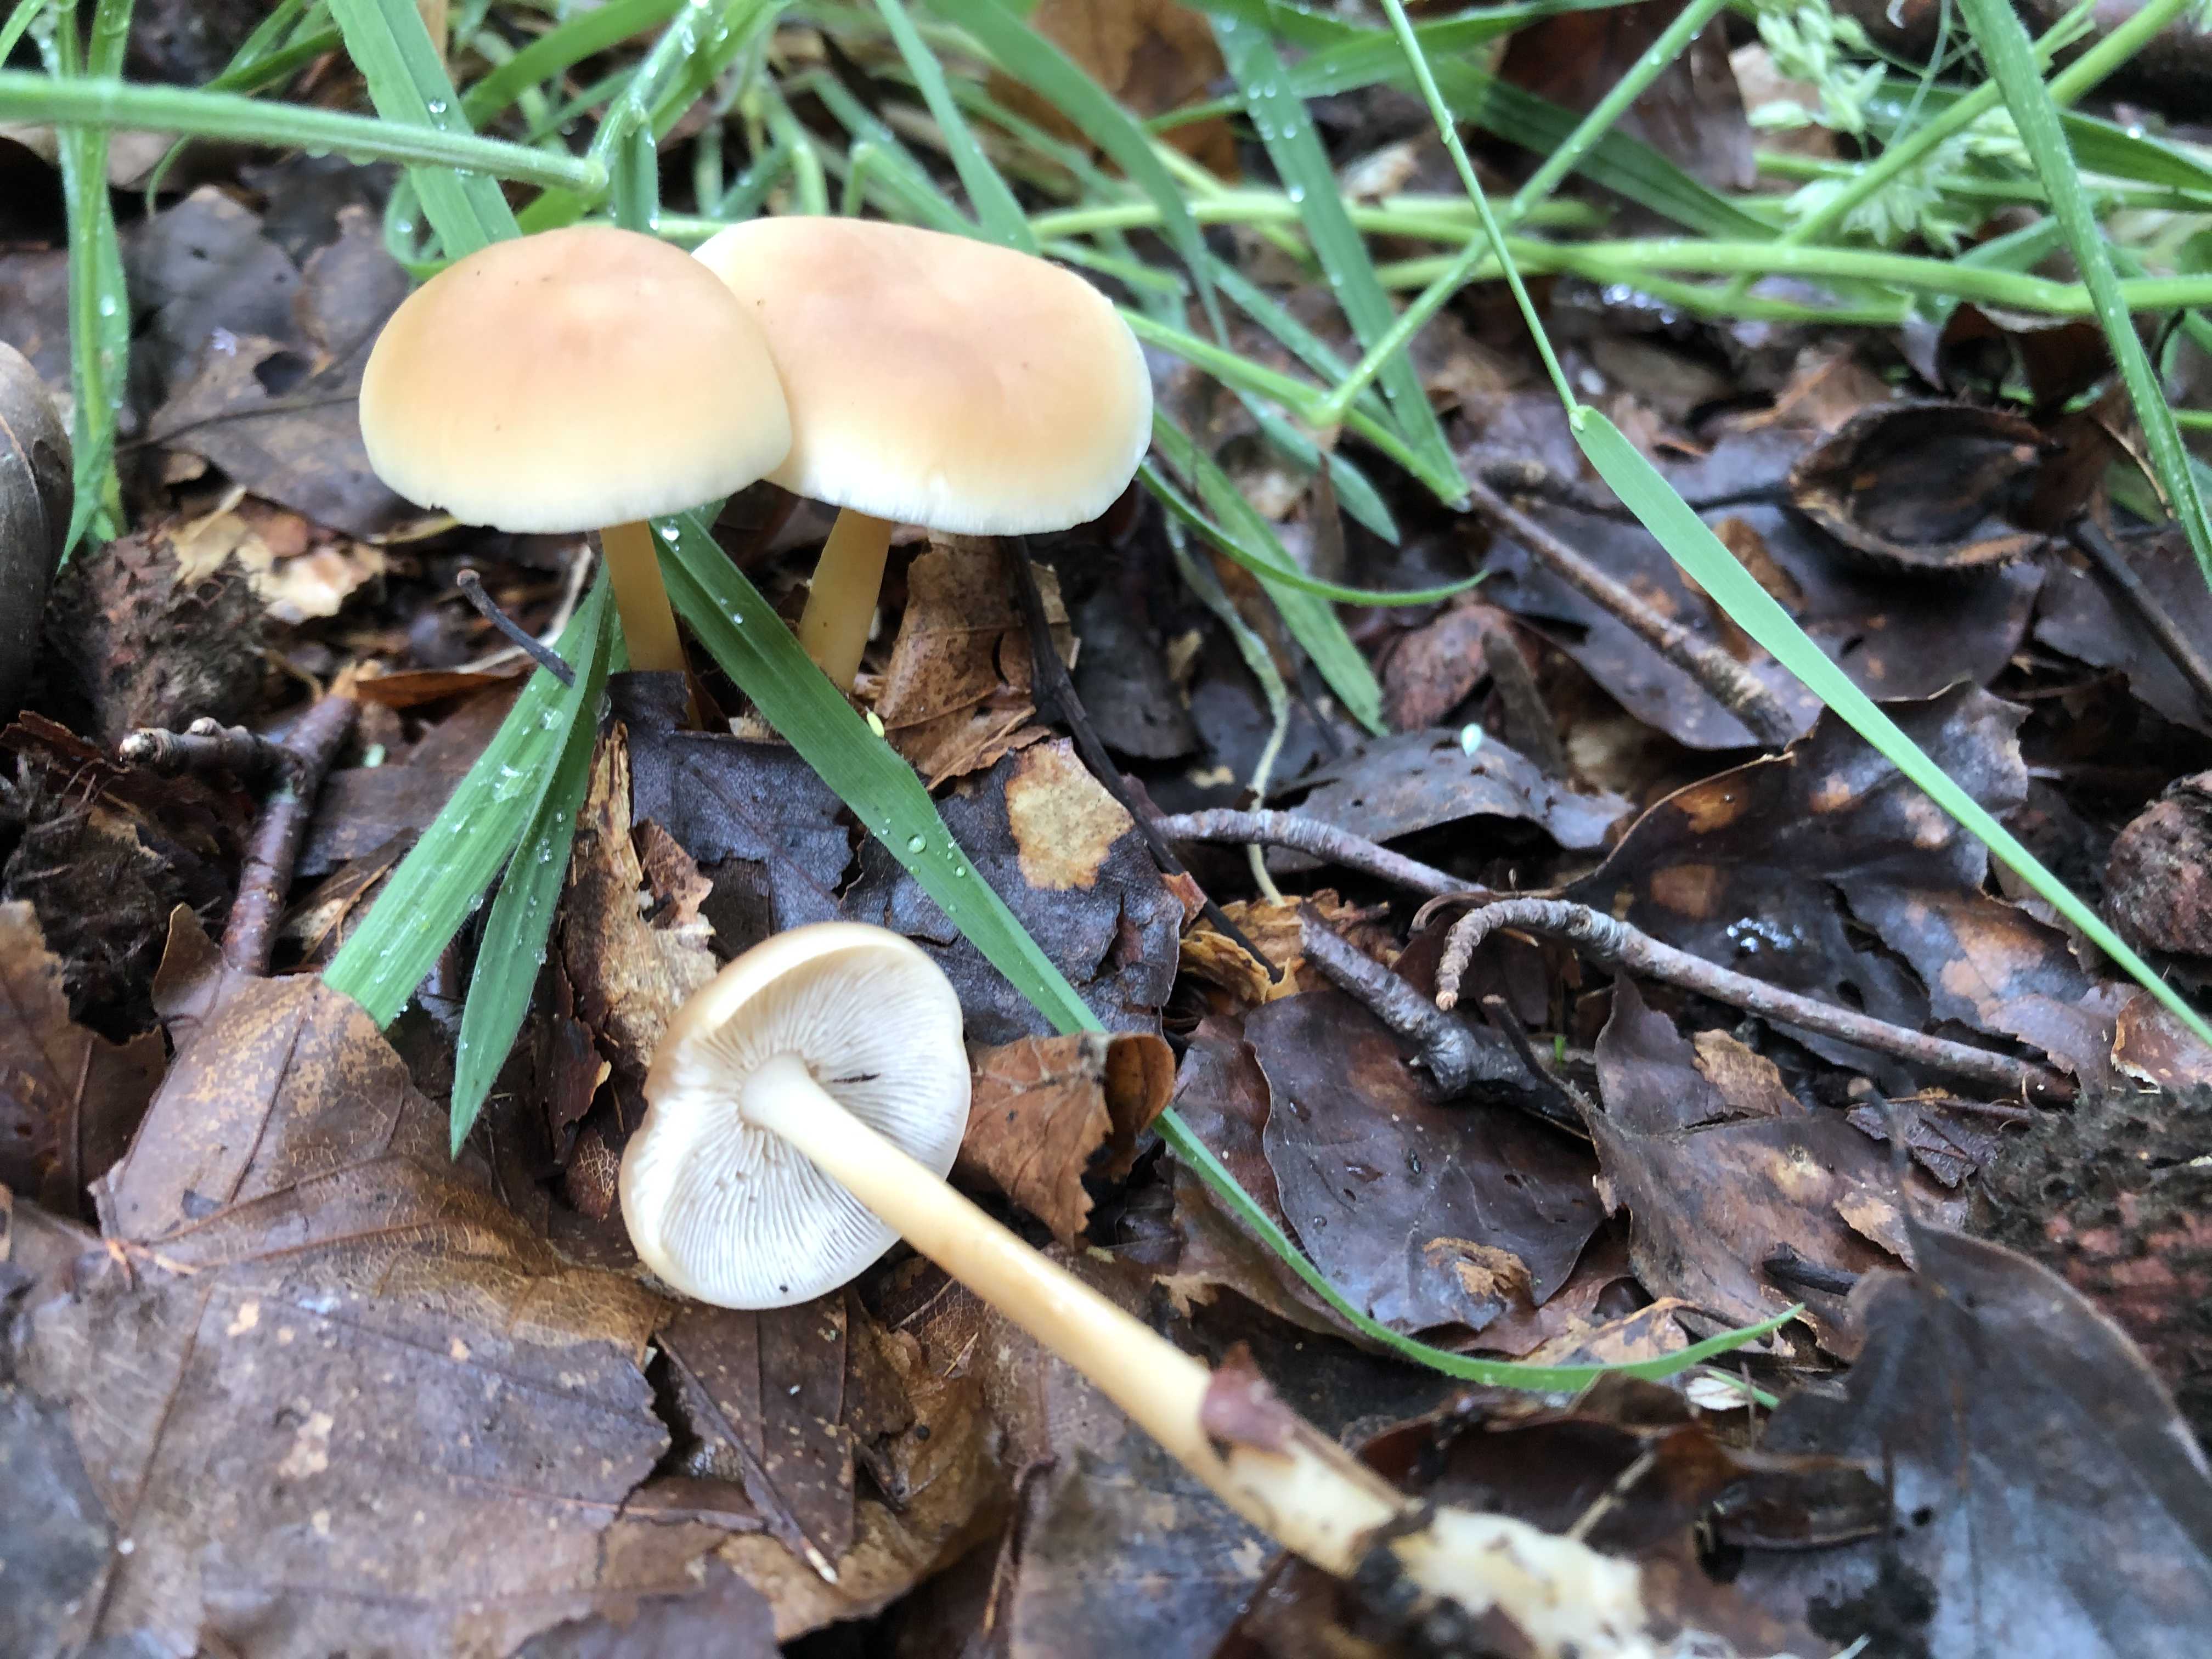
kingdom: Fungi
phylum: Basidiomycota
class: Agaricomycetes
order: Agaricales
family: Omphalotaceae
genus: Gymnopus
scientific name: Gymnopus
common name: fladhat
